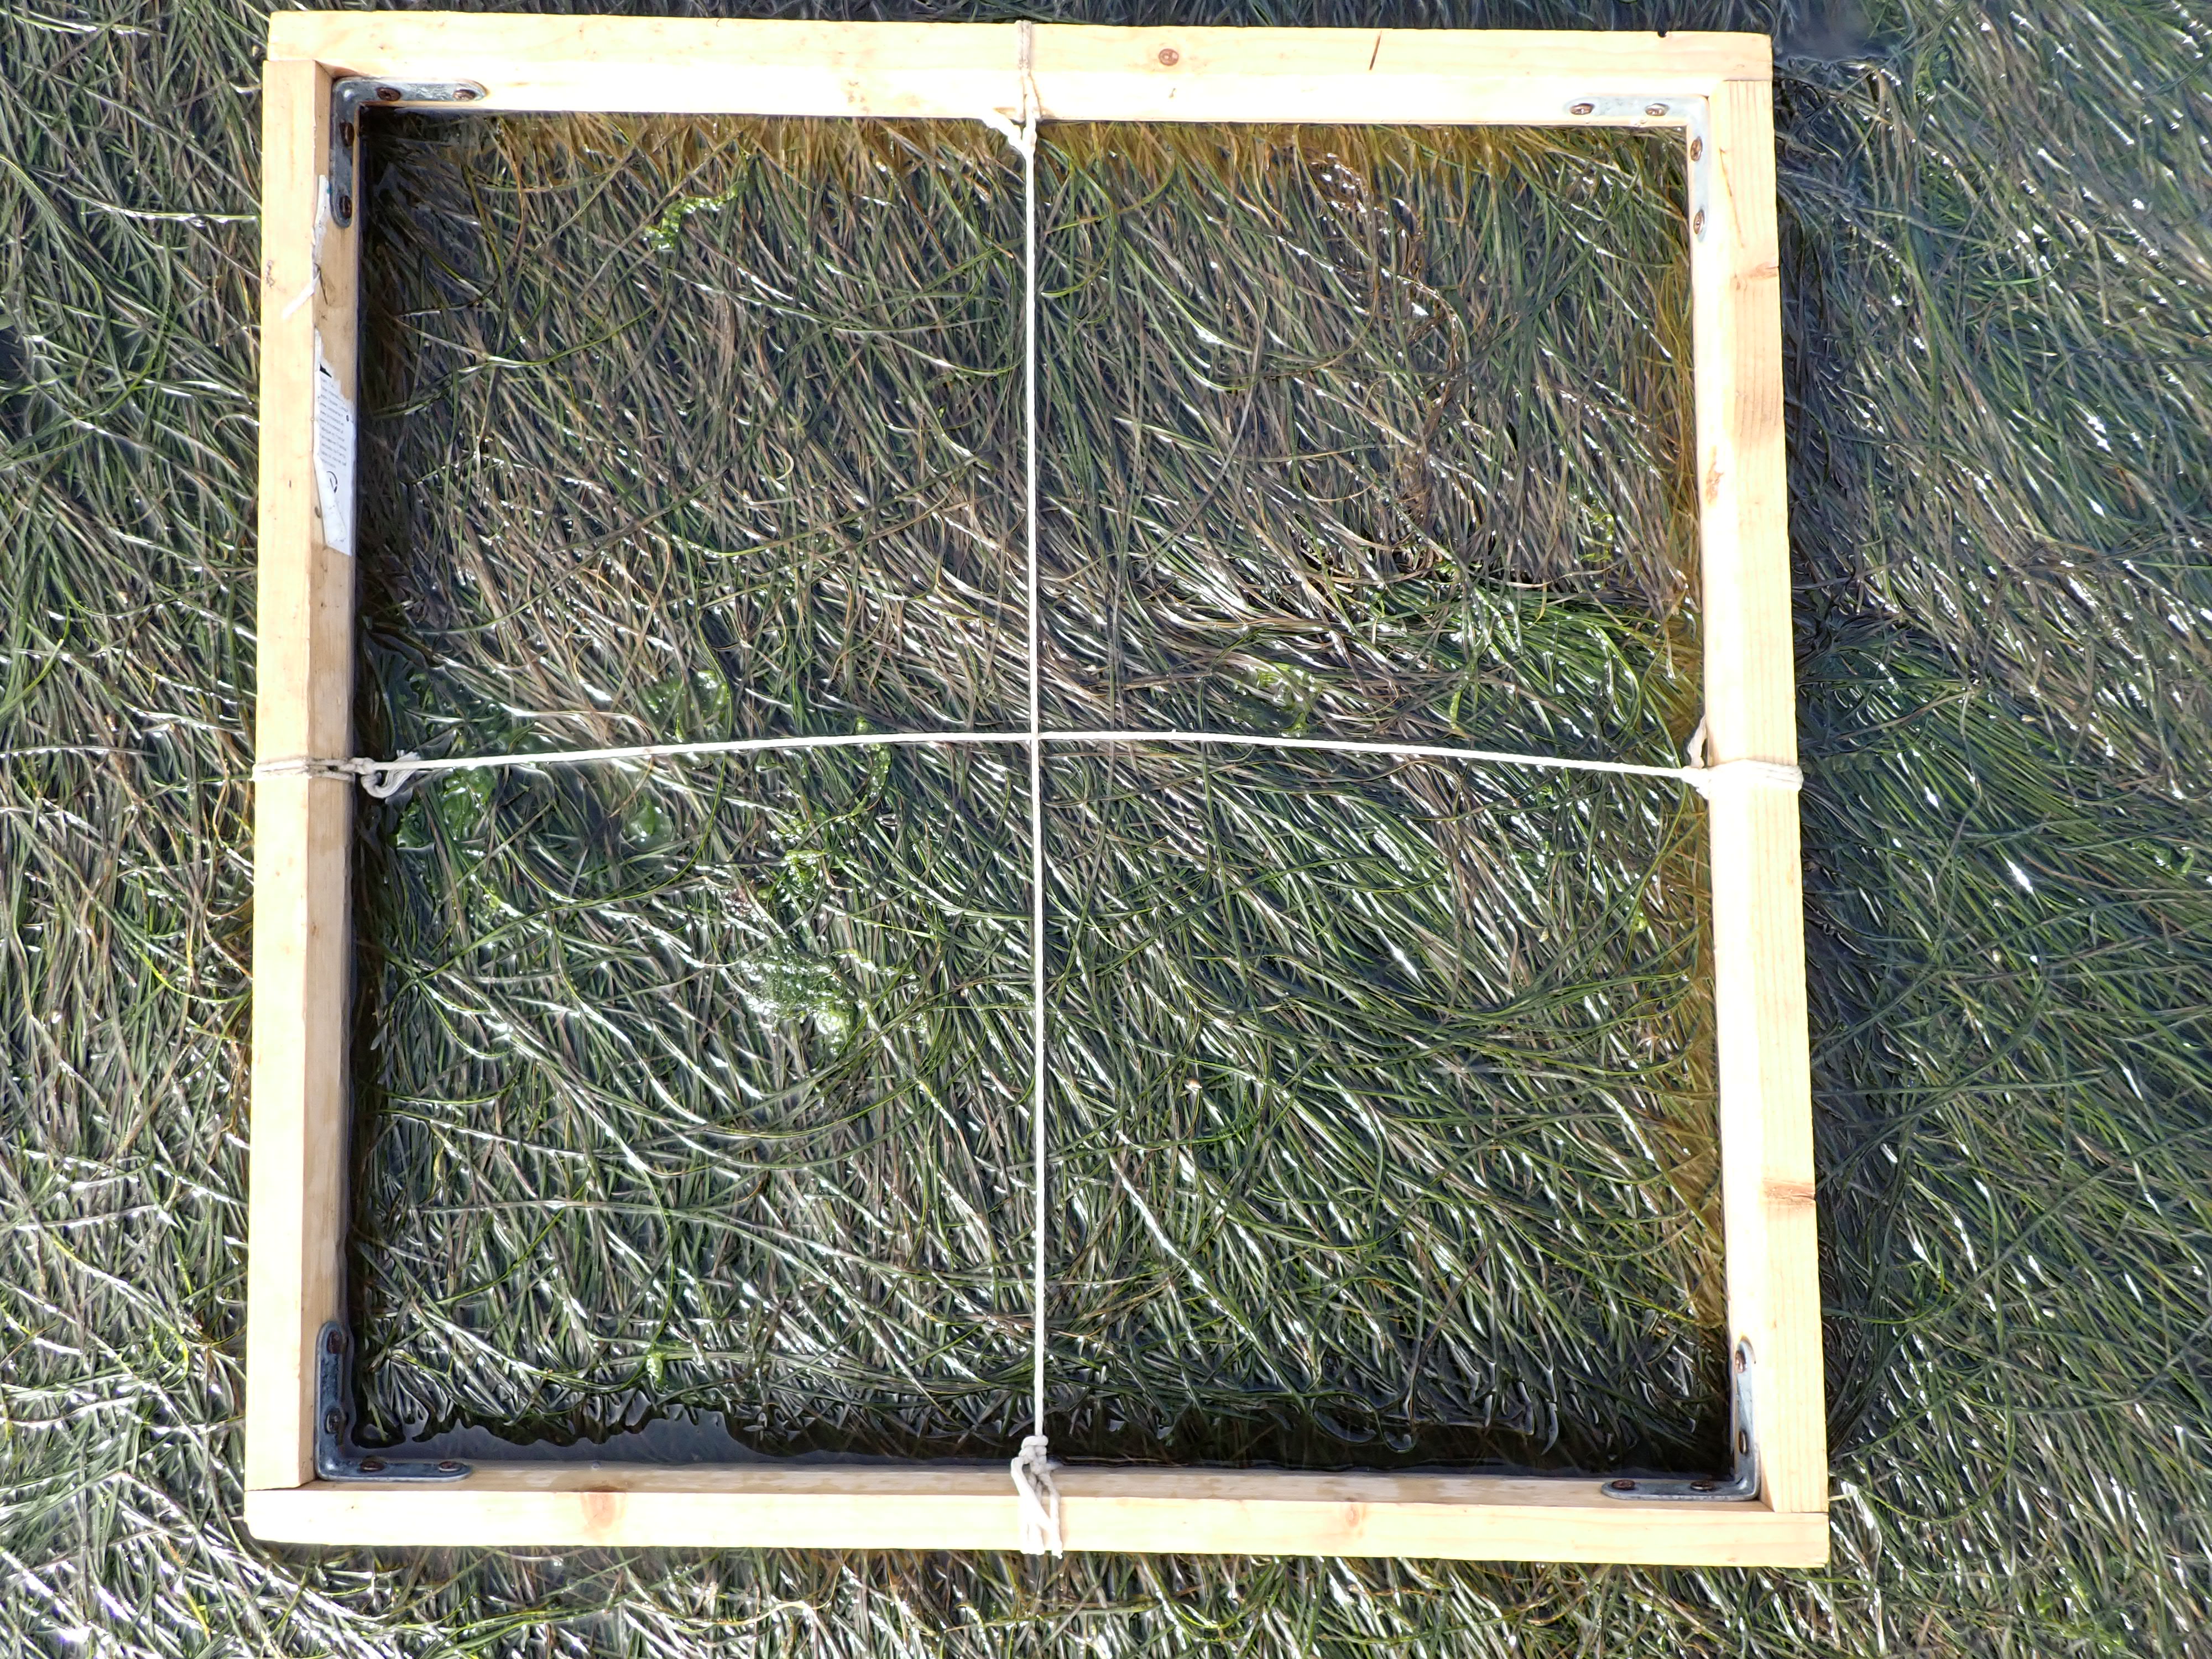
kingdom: Plantae
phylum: Tracheophyta
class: Liliopsida
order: Alismatales
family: Zosteraceae
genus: Zostera
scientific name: Zostera noltii
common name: Dwarf eelgrass
